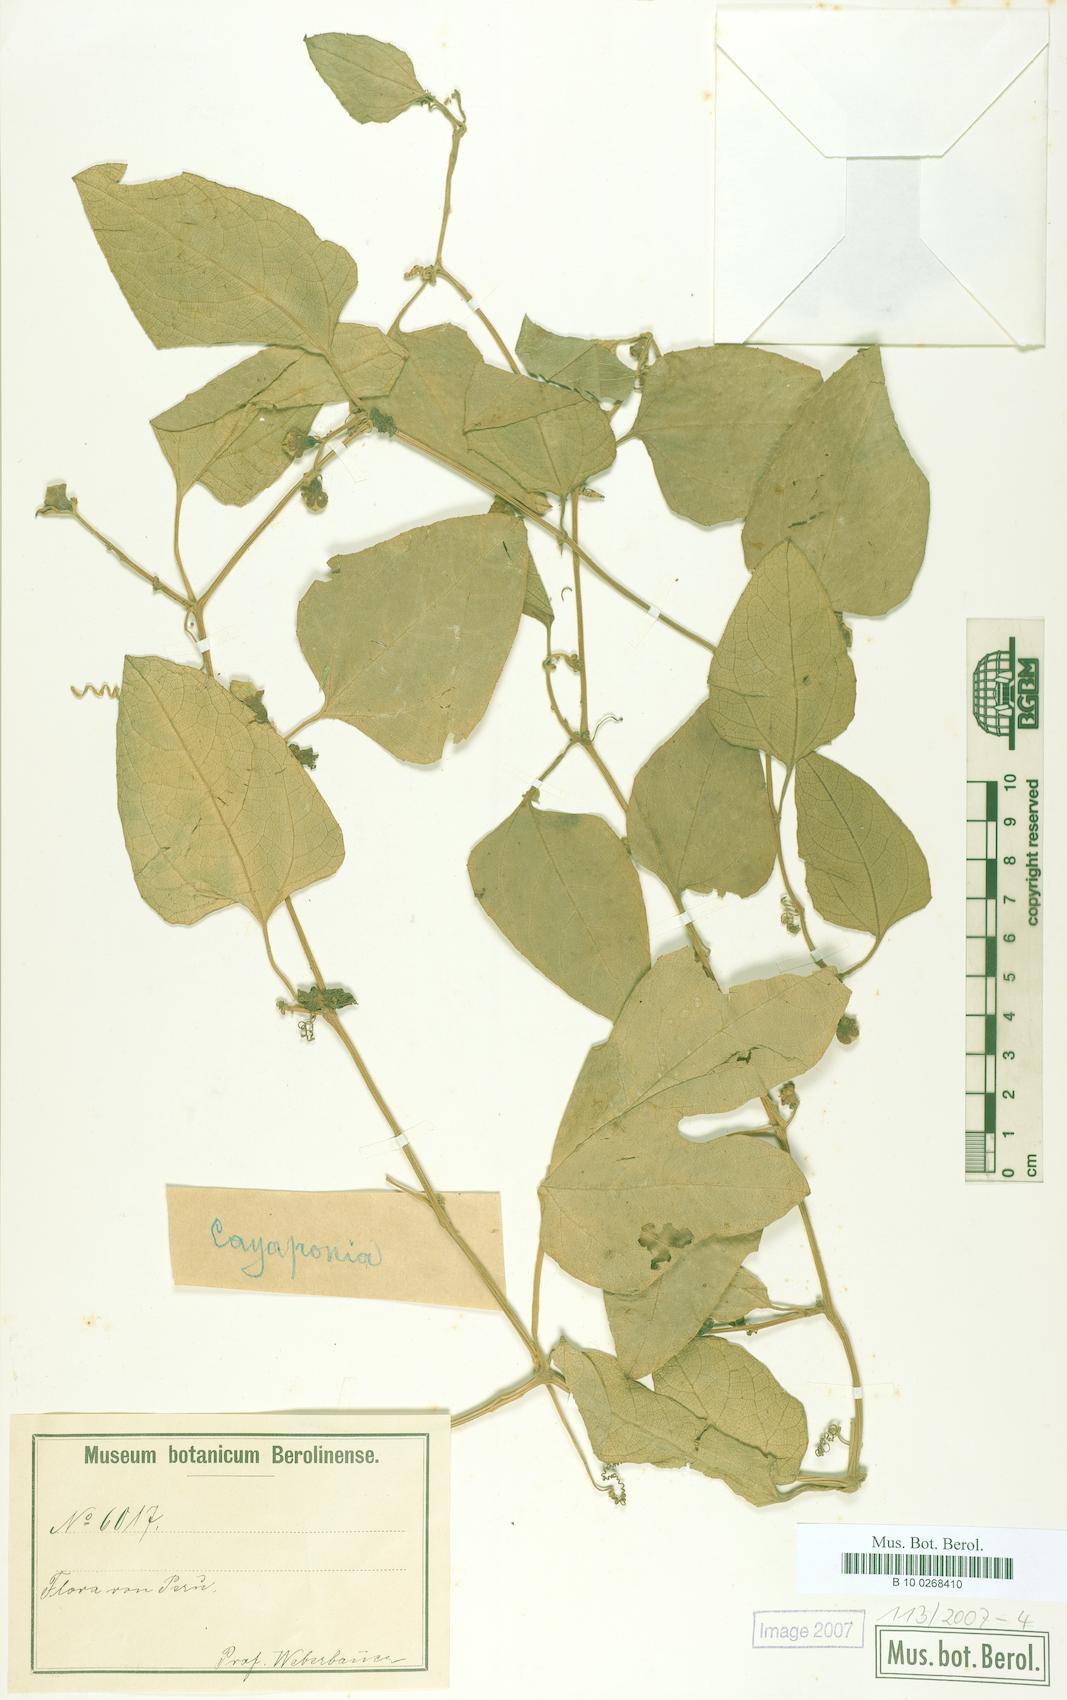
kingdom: Plantae
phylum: Tracheophyta
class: Magnoliopsida
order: Cucurbitales
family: Cucurbitaceae
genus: Cayaponia
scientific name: Cayaponia glandulosa
